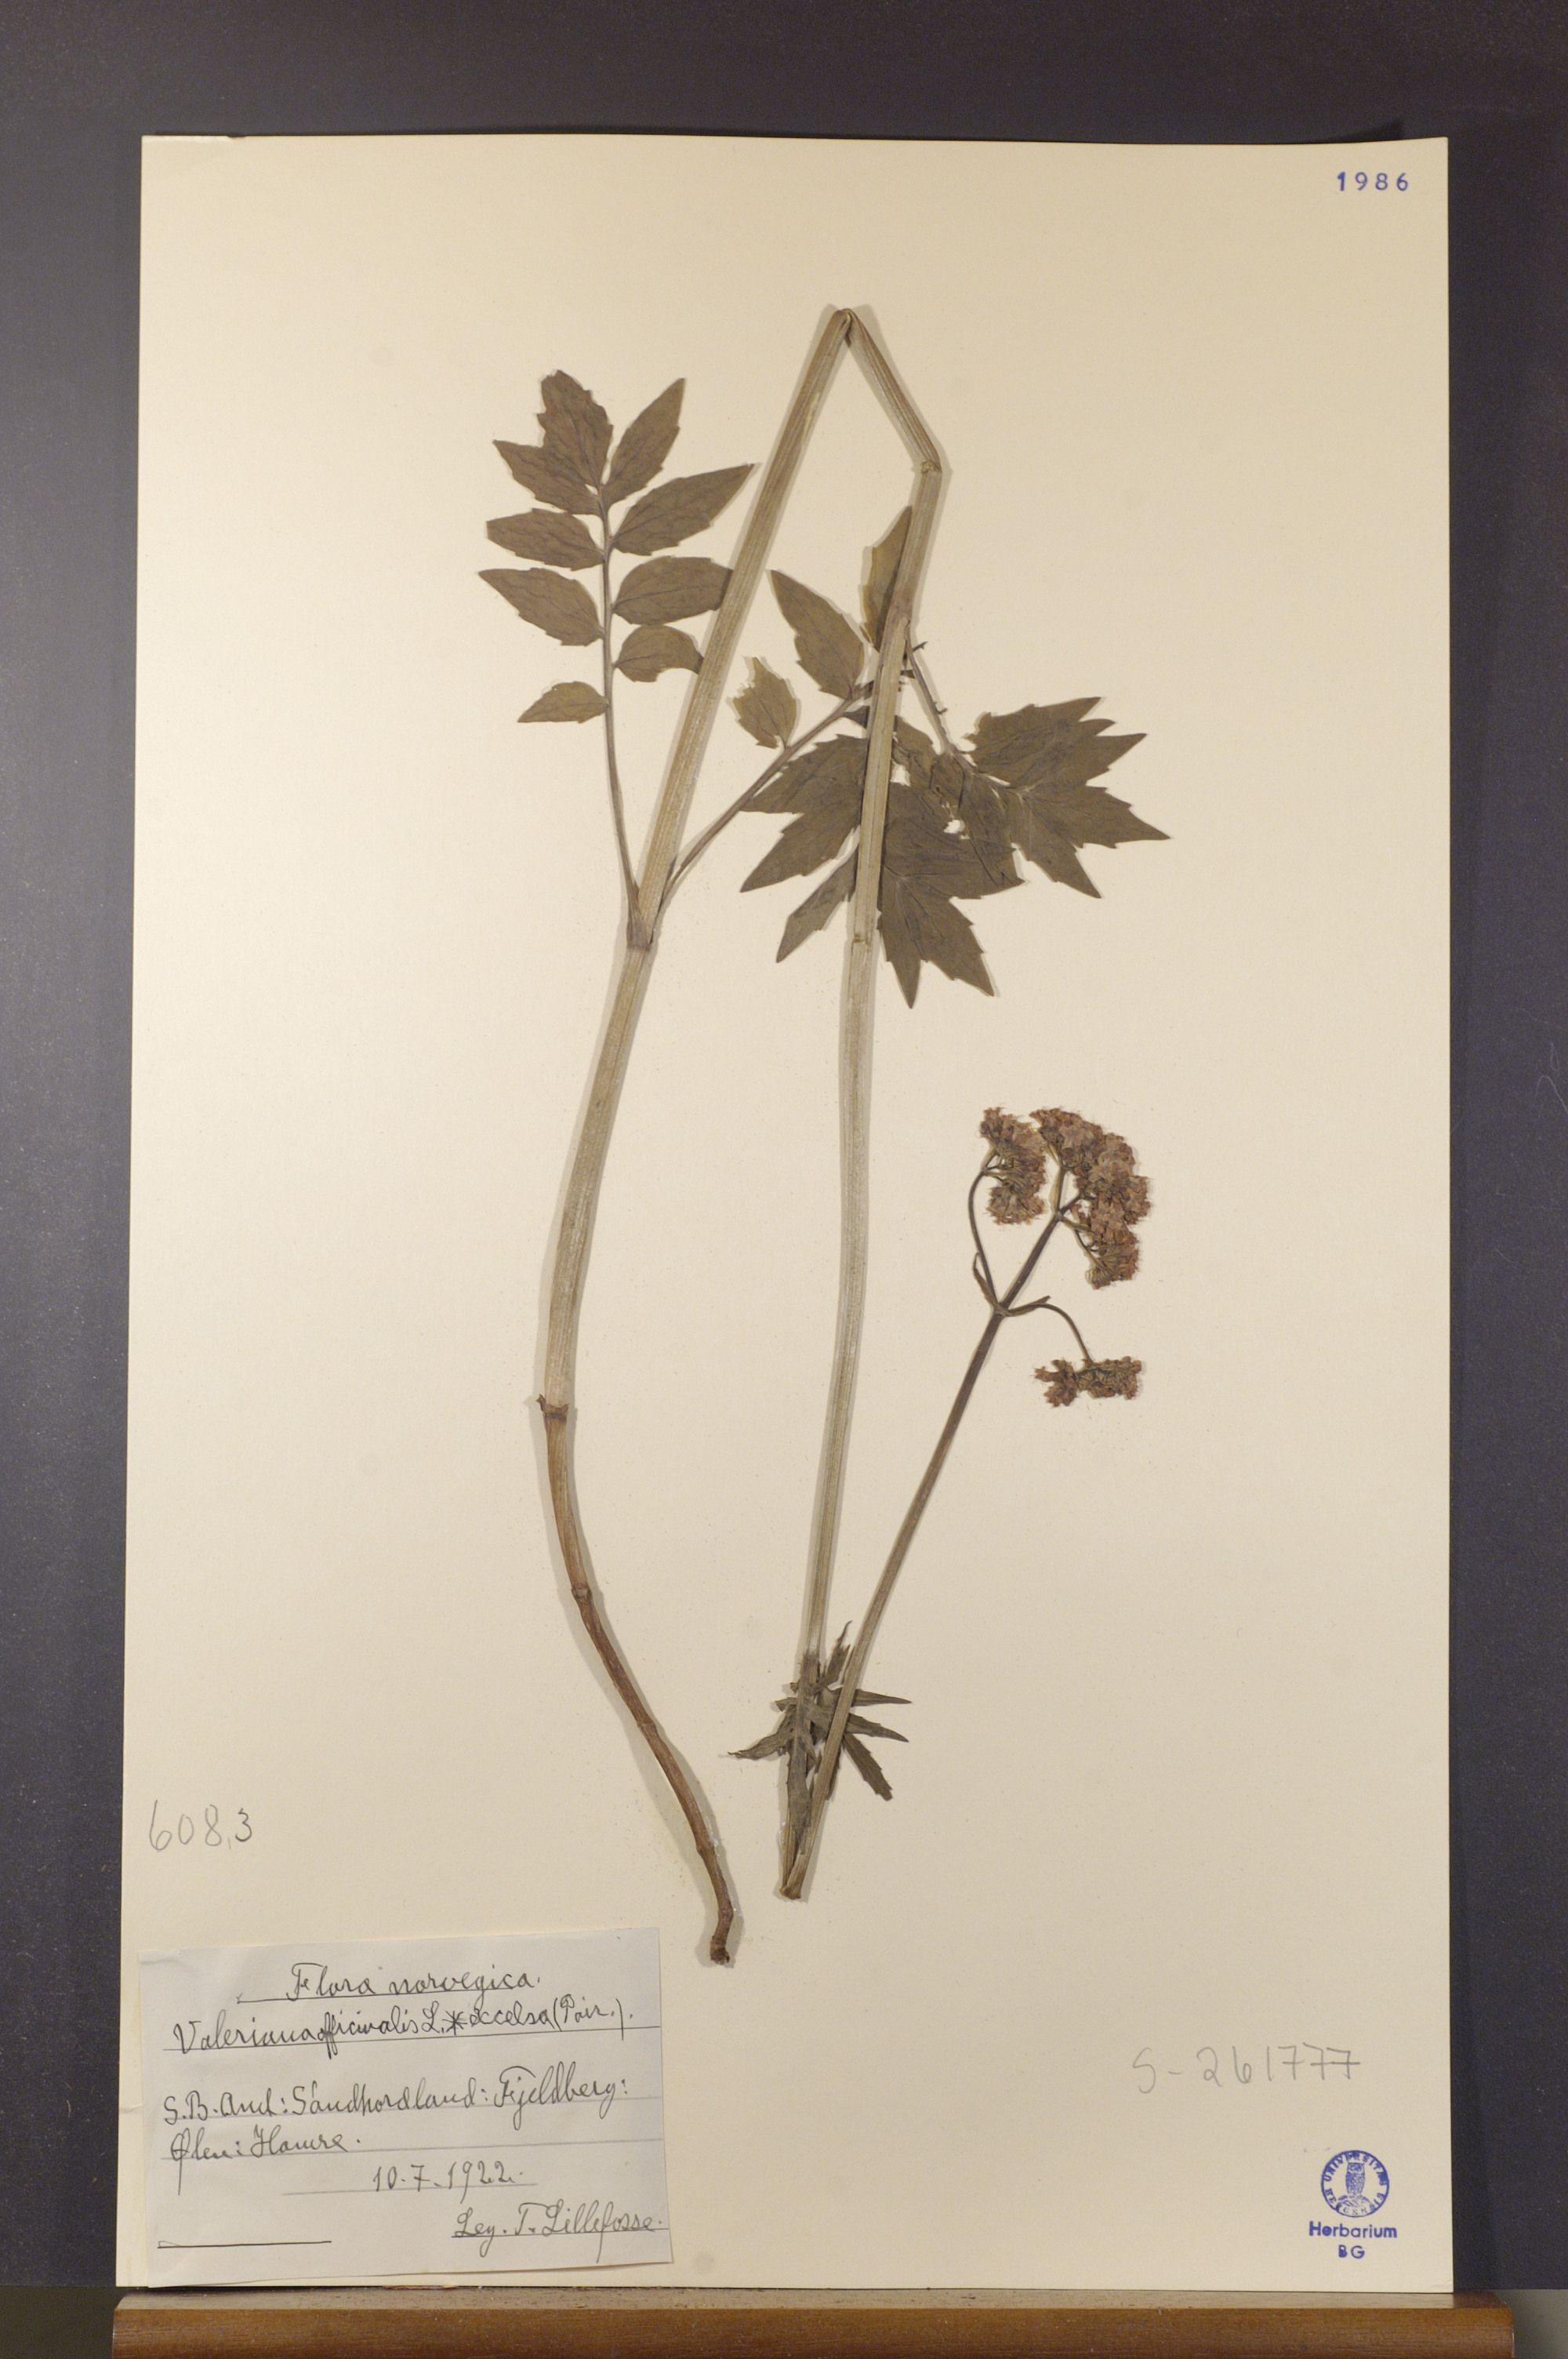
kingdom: Plantae
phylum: Tracheophyta
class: Magnoliopsida
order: Dipsacales
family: Caprifoliaceae
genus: Valeriana
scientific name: Valeriana sambucifolia
